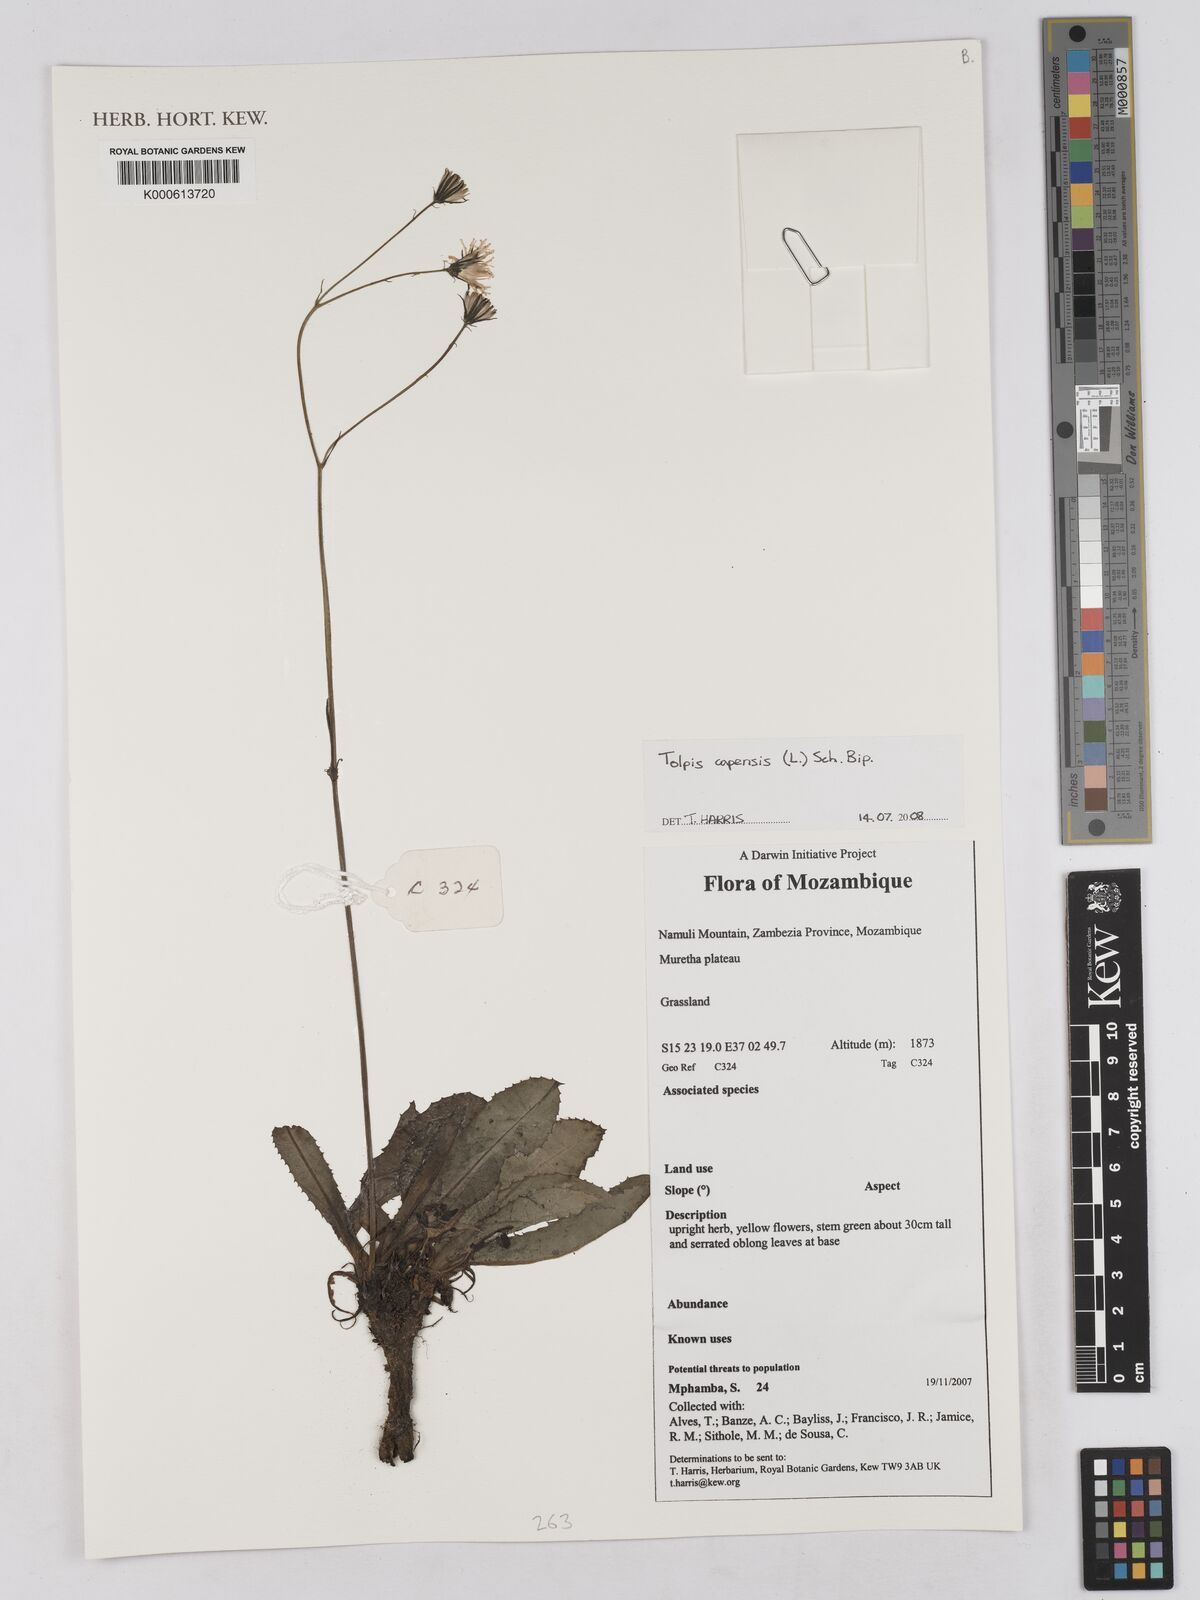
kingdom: Plantae
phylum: Tracheophyta
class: Magnoliopsida
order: Asterales
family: Asteraceae
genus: Tolpis
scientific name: Tolpis capensis
